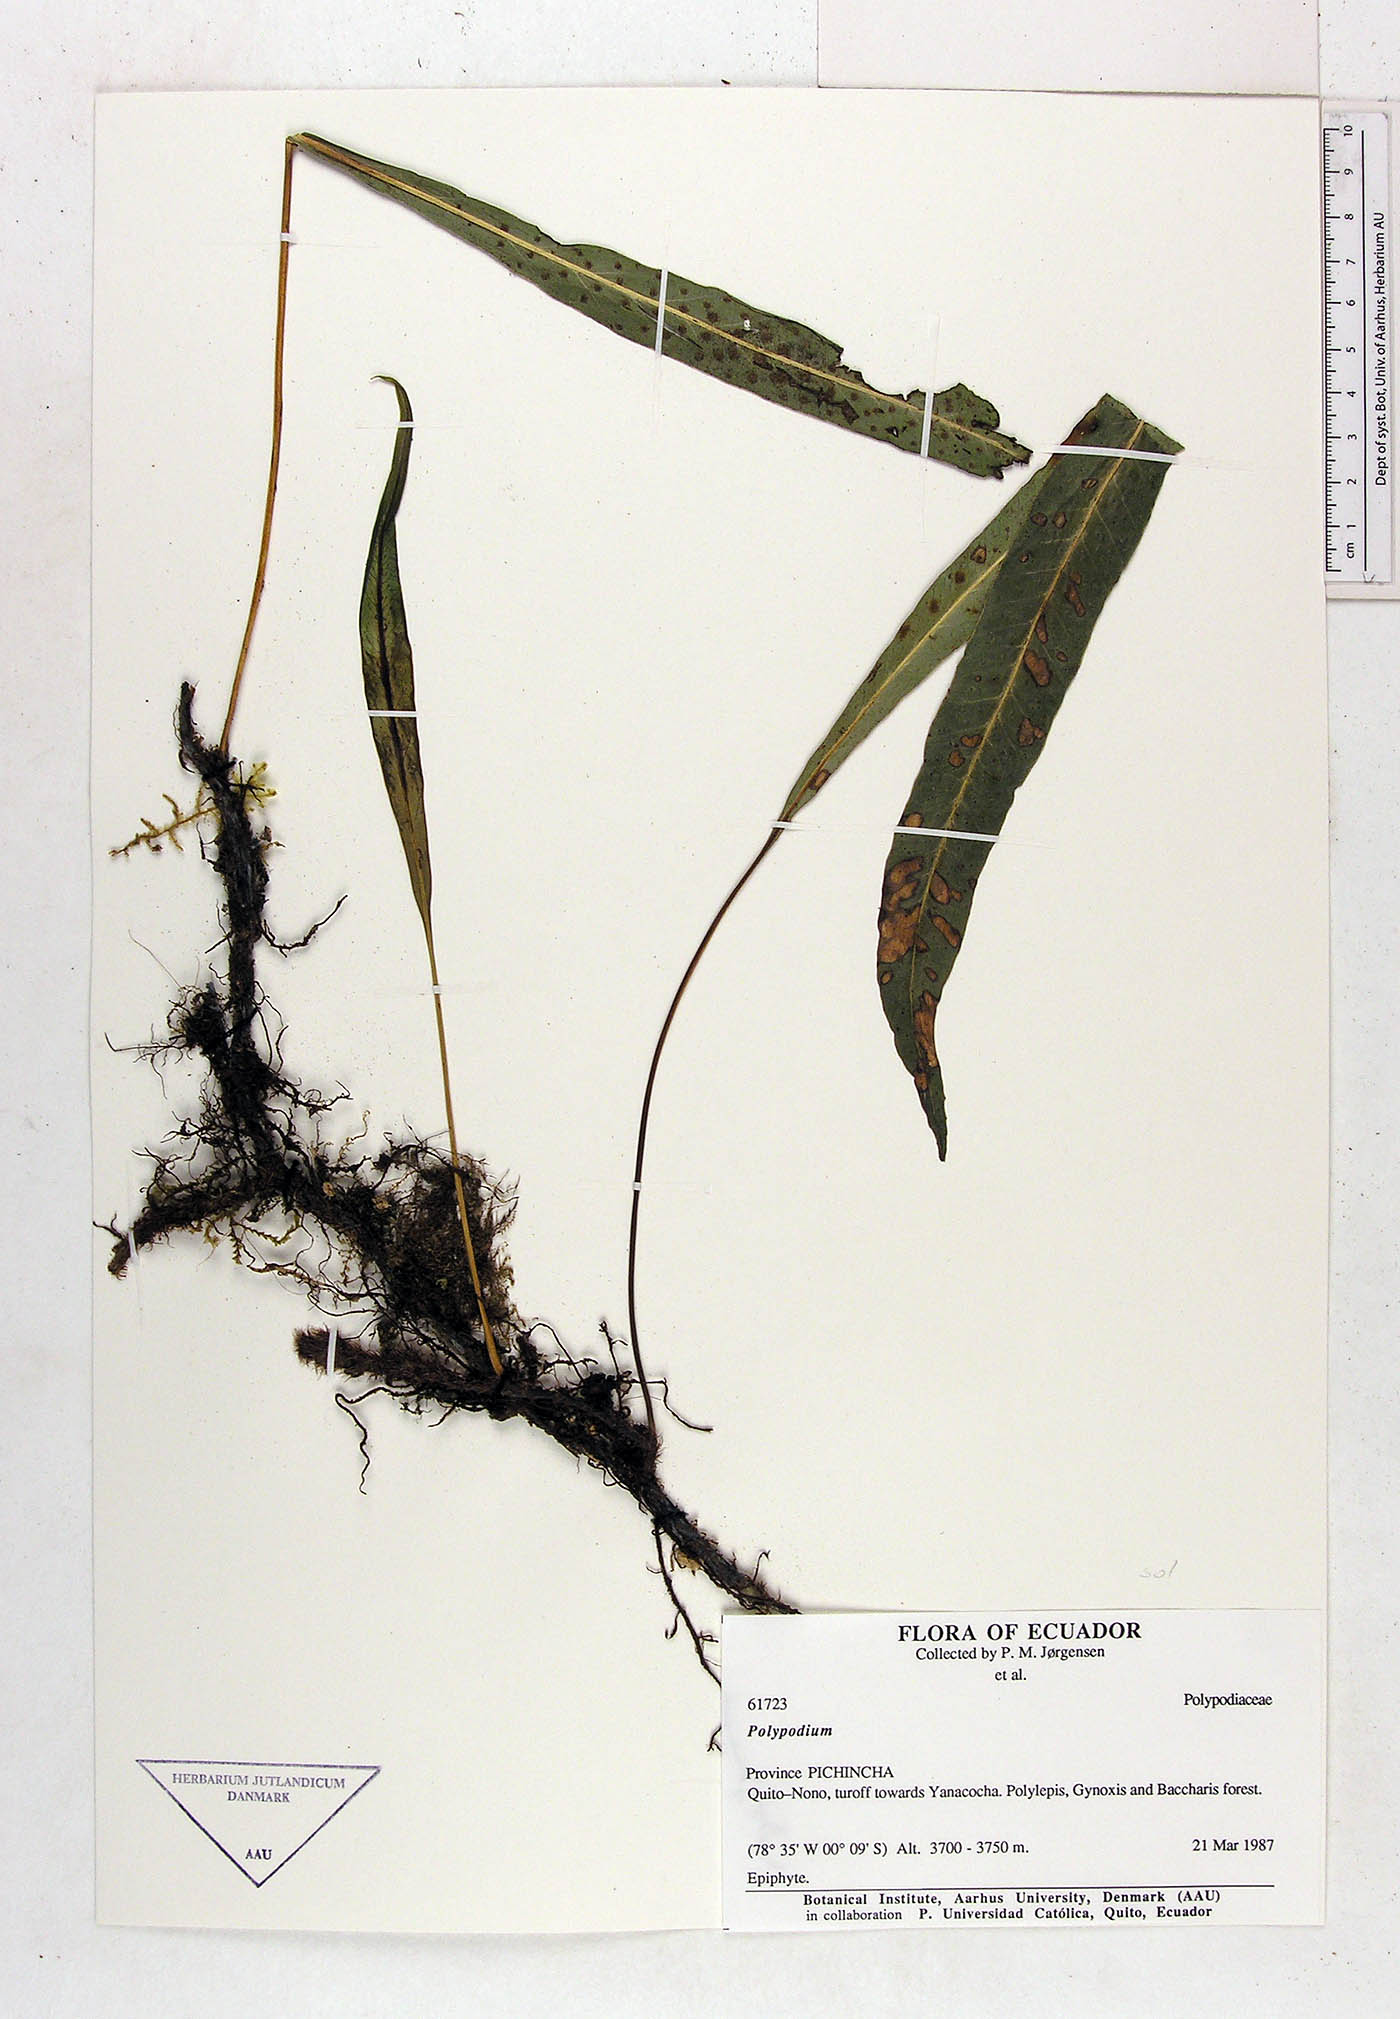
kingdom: Plantae
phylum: Tracheophyta
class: Polypodiopsida
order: Polypodiales
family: Polypodiaceae
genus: Campyloneurum
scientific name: Campyloneurum solutum
